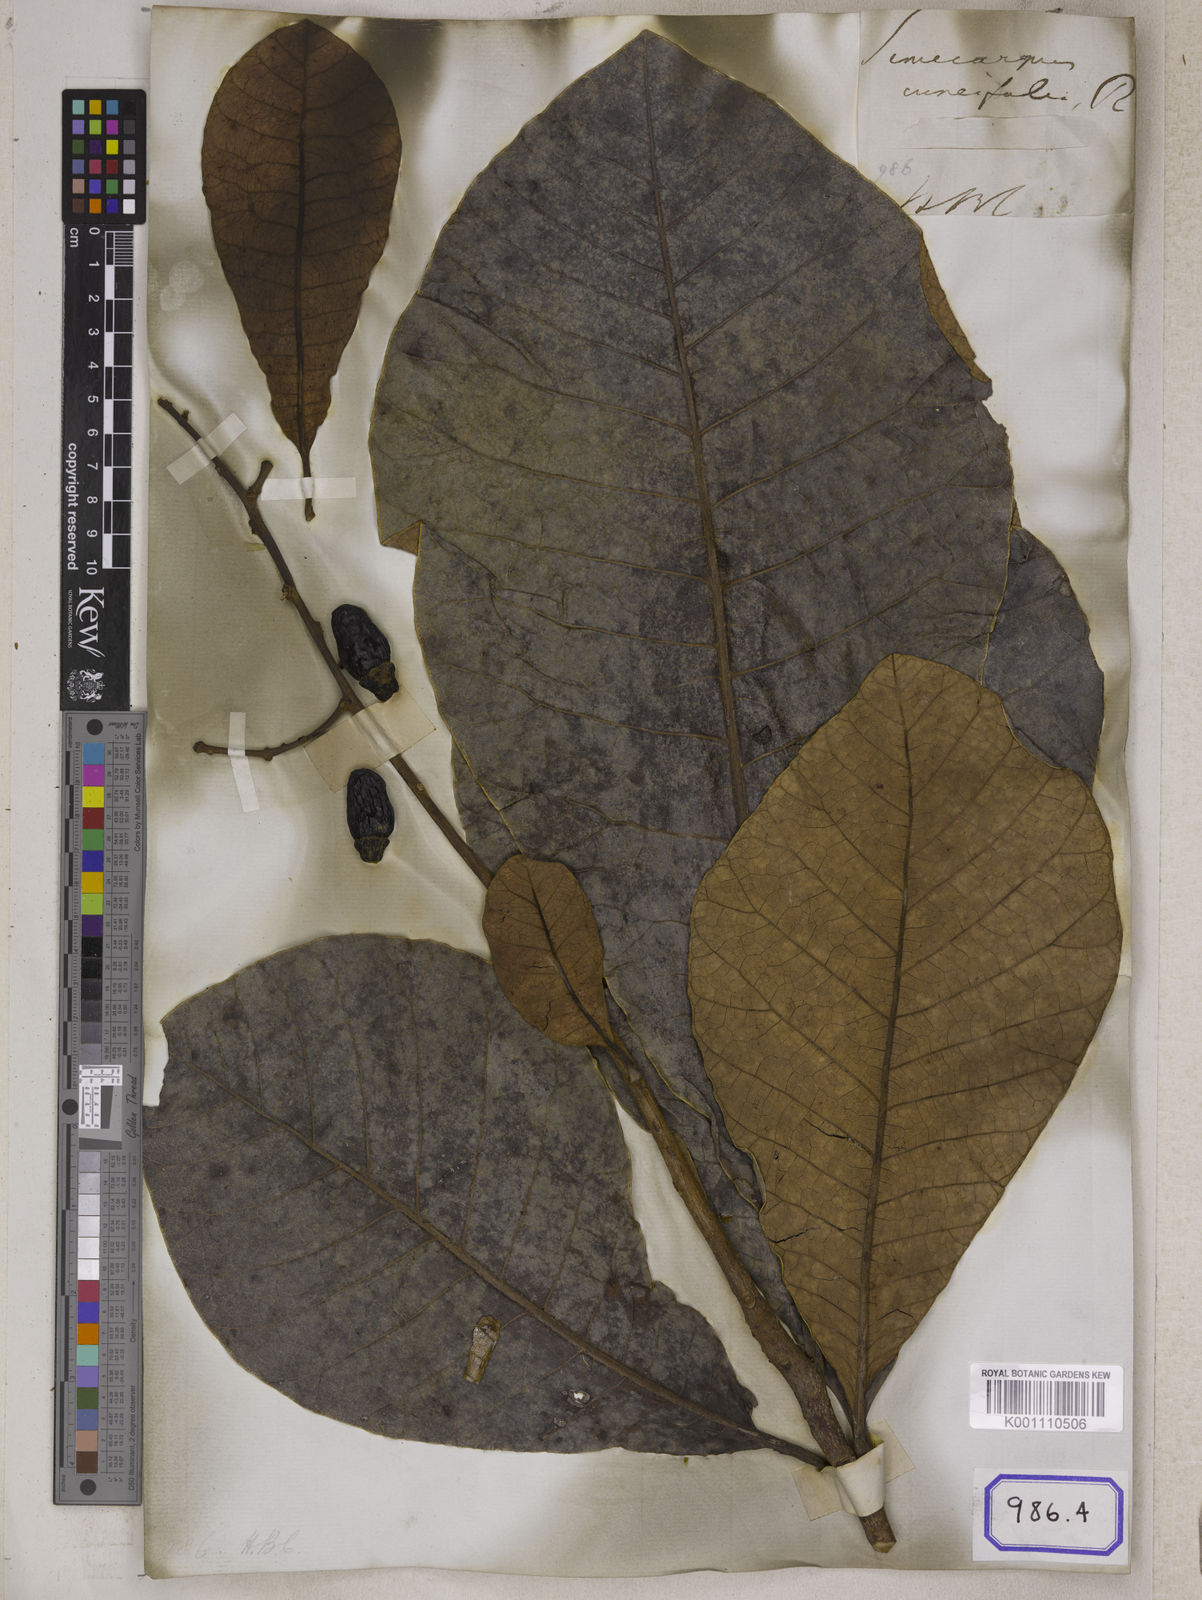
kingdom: Plantae
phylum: Tracheophyta
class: Magnoliopsida
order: Sapindales
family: Anacardiaceae
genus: Semecarpus
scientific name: Semecarpus anacardium
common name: Marking nut-tree
